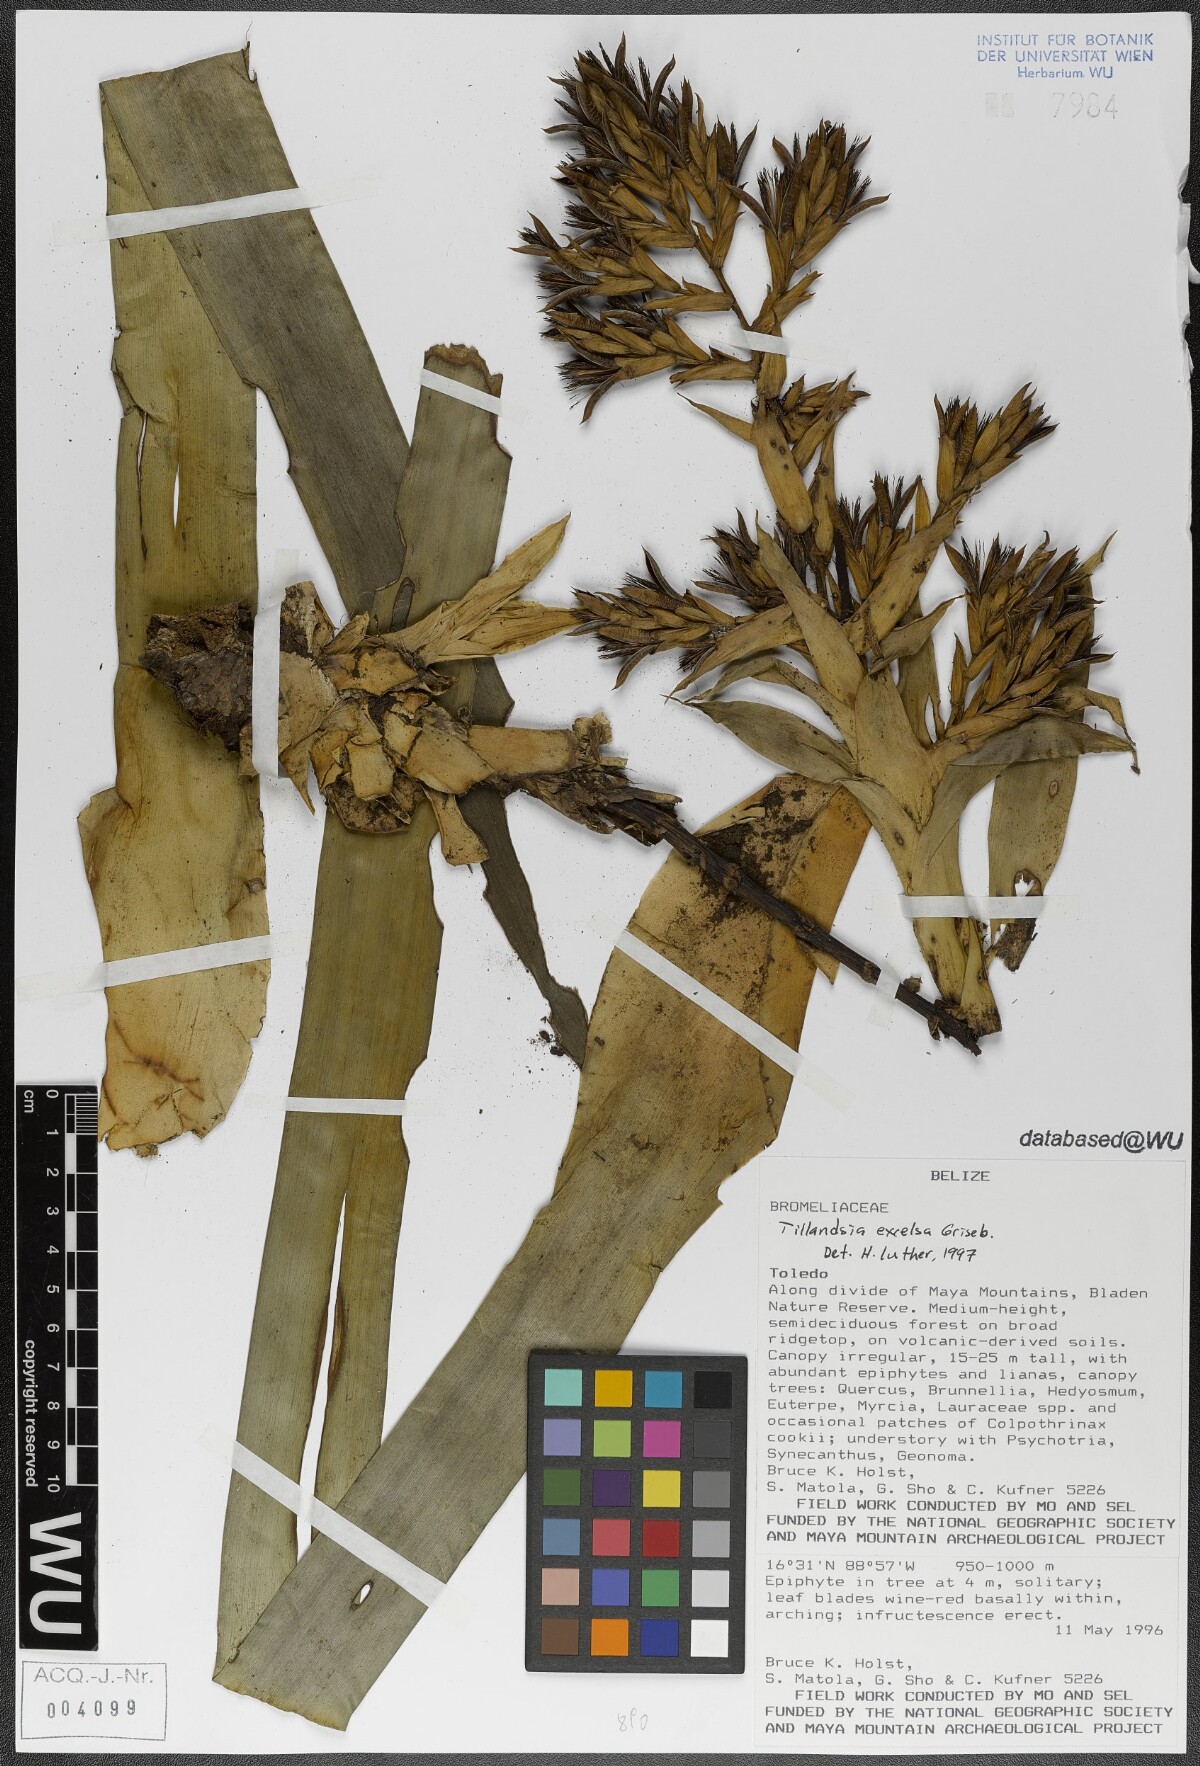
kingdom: Plantae
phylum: Tracheophyta
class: Liliopsida
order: Poales
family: Bromeliaceae
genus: Tillandsia
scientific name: Tillandsia excelsa
